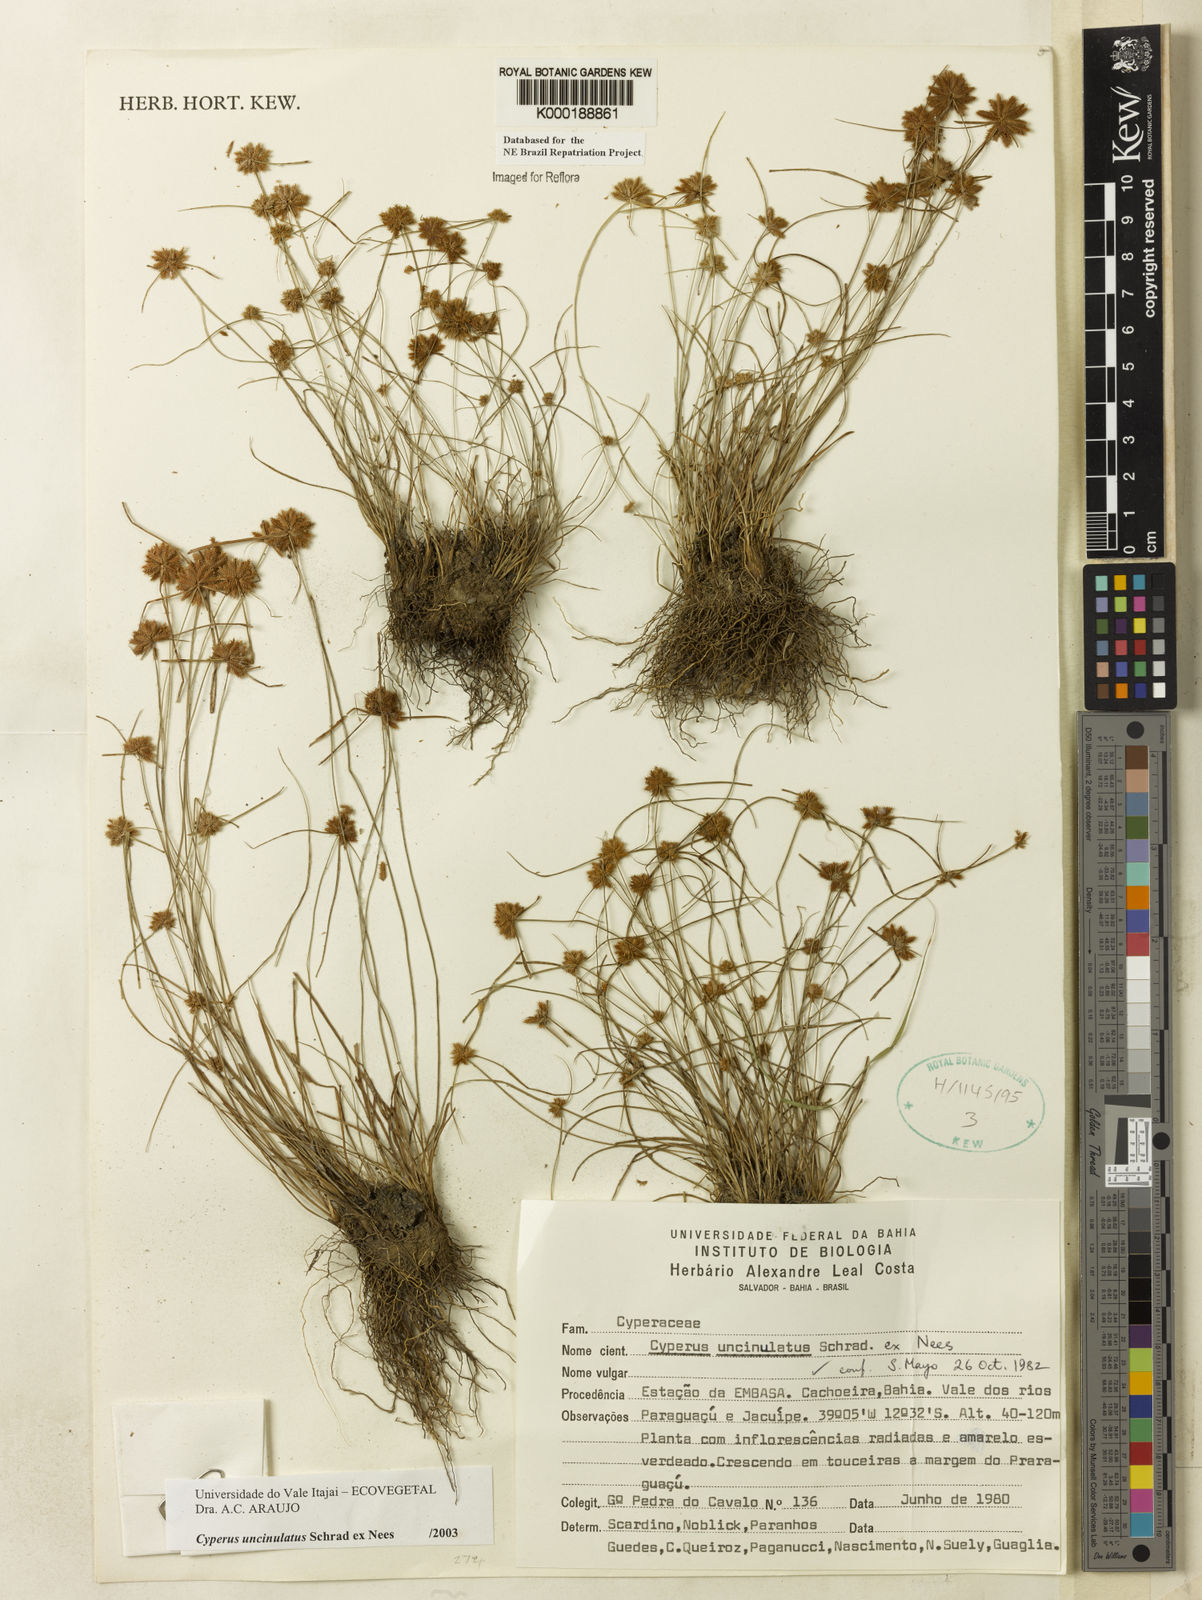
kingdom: Plantae
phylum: Tracheophyta
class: Liliopsida
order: Poales
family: Cyperaceae
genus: Cyperus
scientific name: Cyperus uncinulatus
